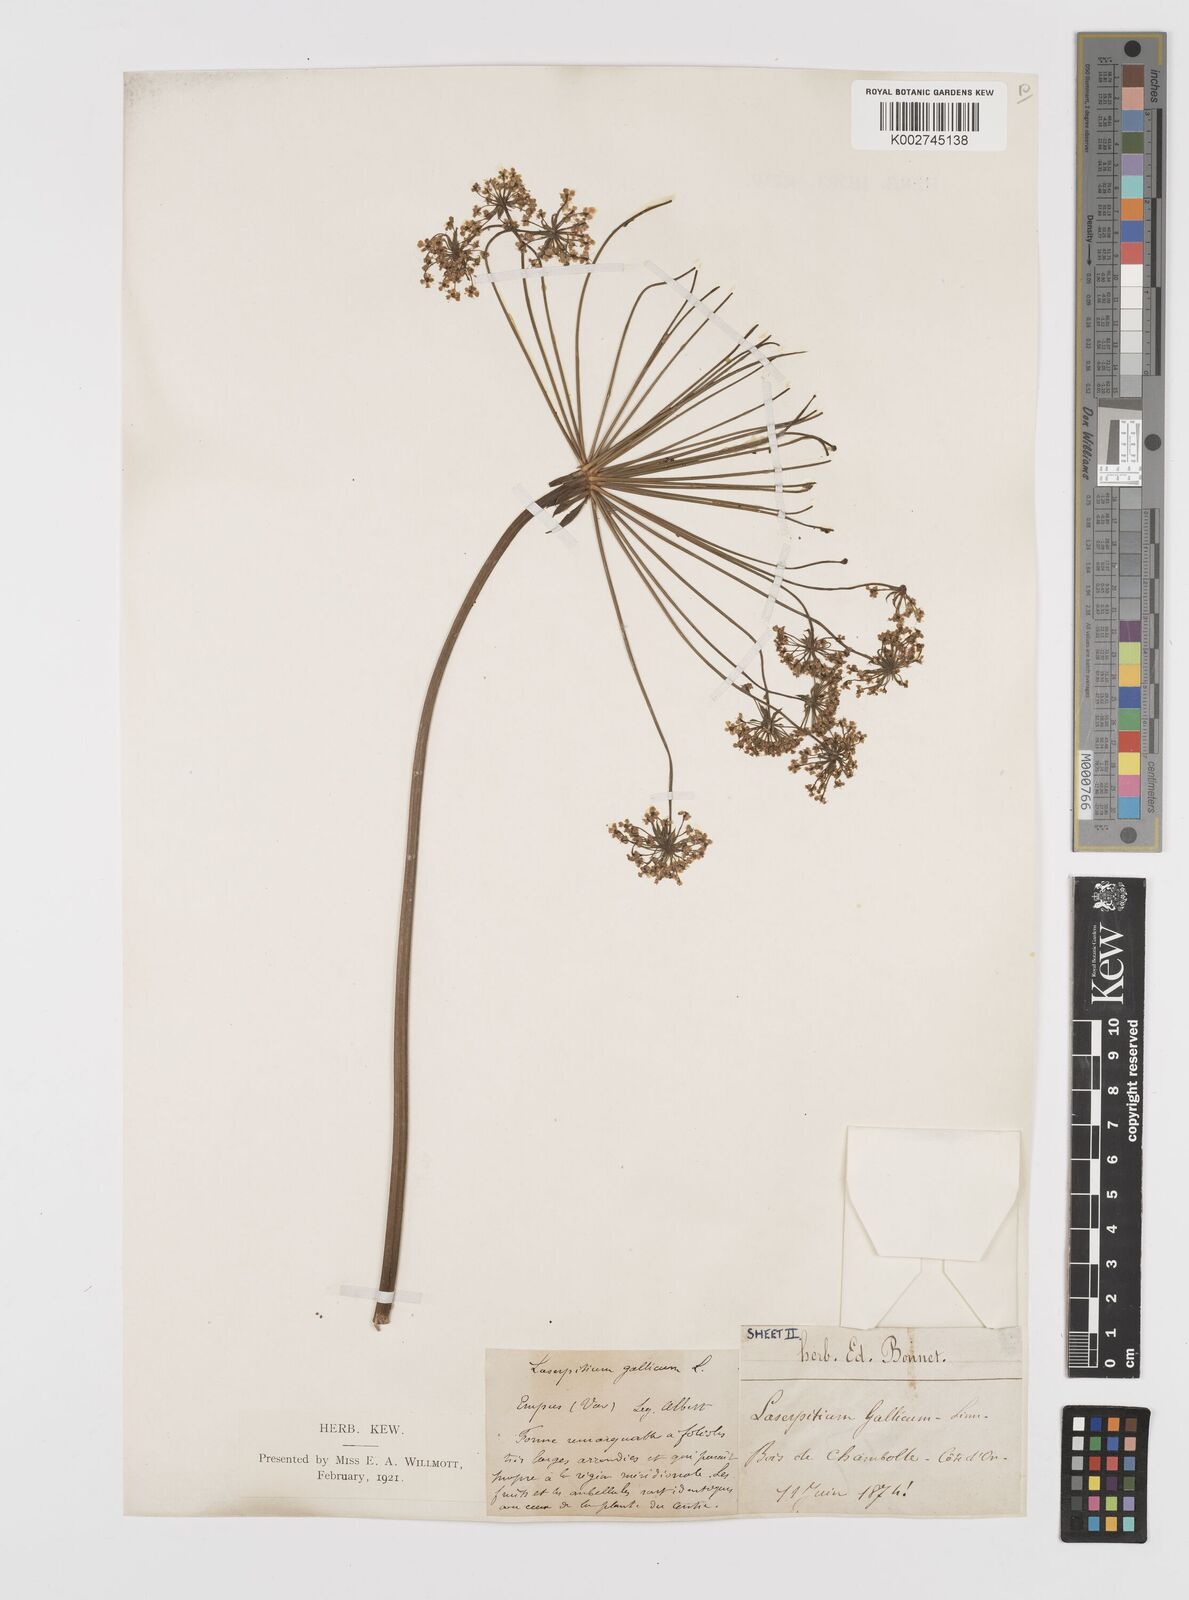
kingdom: Plantae
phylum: Tracheophyta
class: Magnoliopsida
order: Apiales
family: Apiaceae
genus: Laserpitium
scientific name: Laserpitium gallicum
